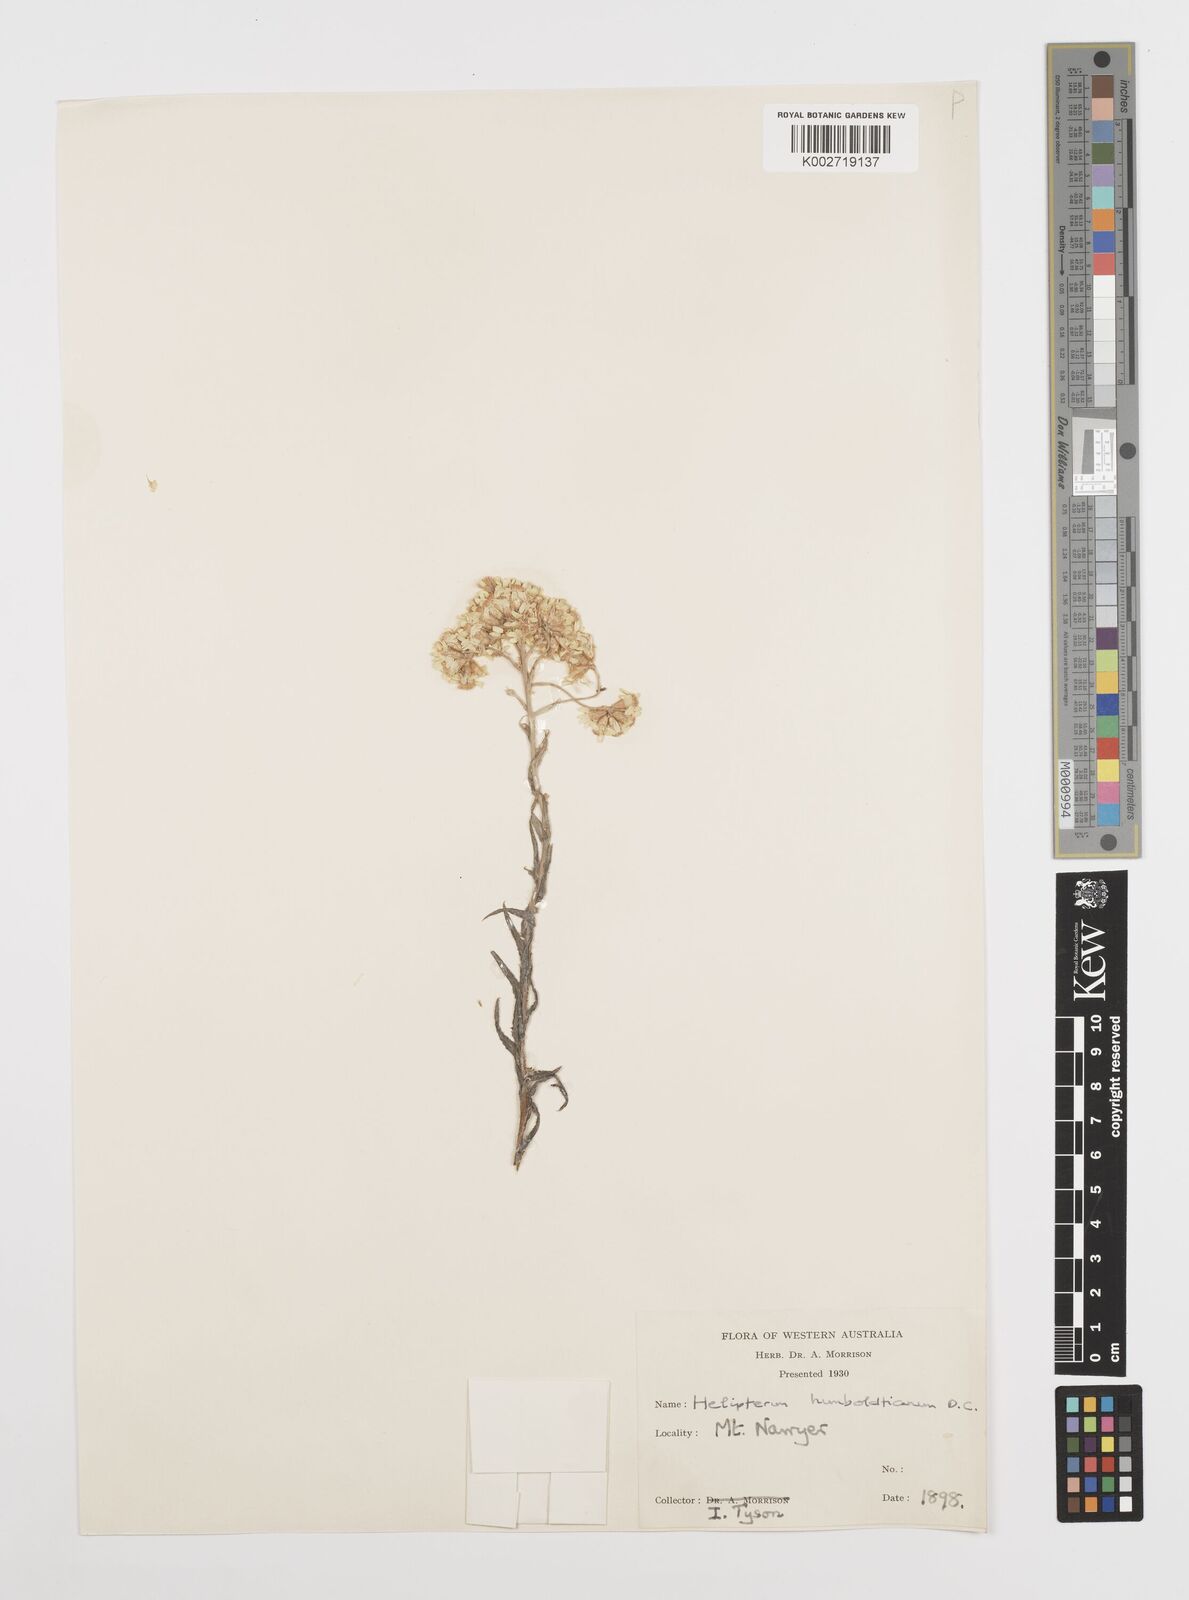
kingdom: Plantae
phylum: Tracheophyta
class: Magnoliopsida
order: Asterales
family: Asteraceae
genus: Rhodanthe
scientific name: Rhodanthe humboldtiana
